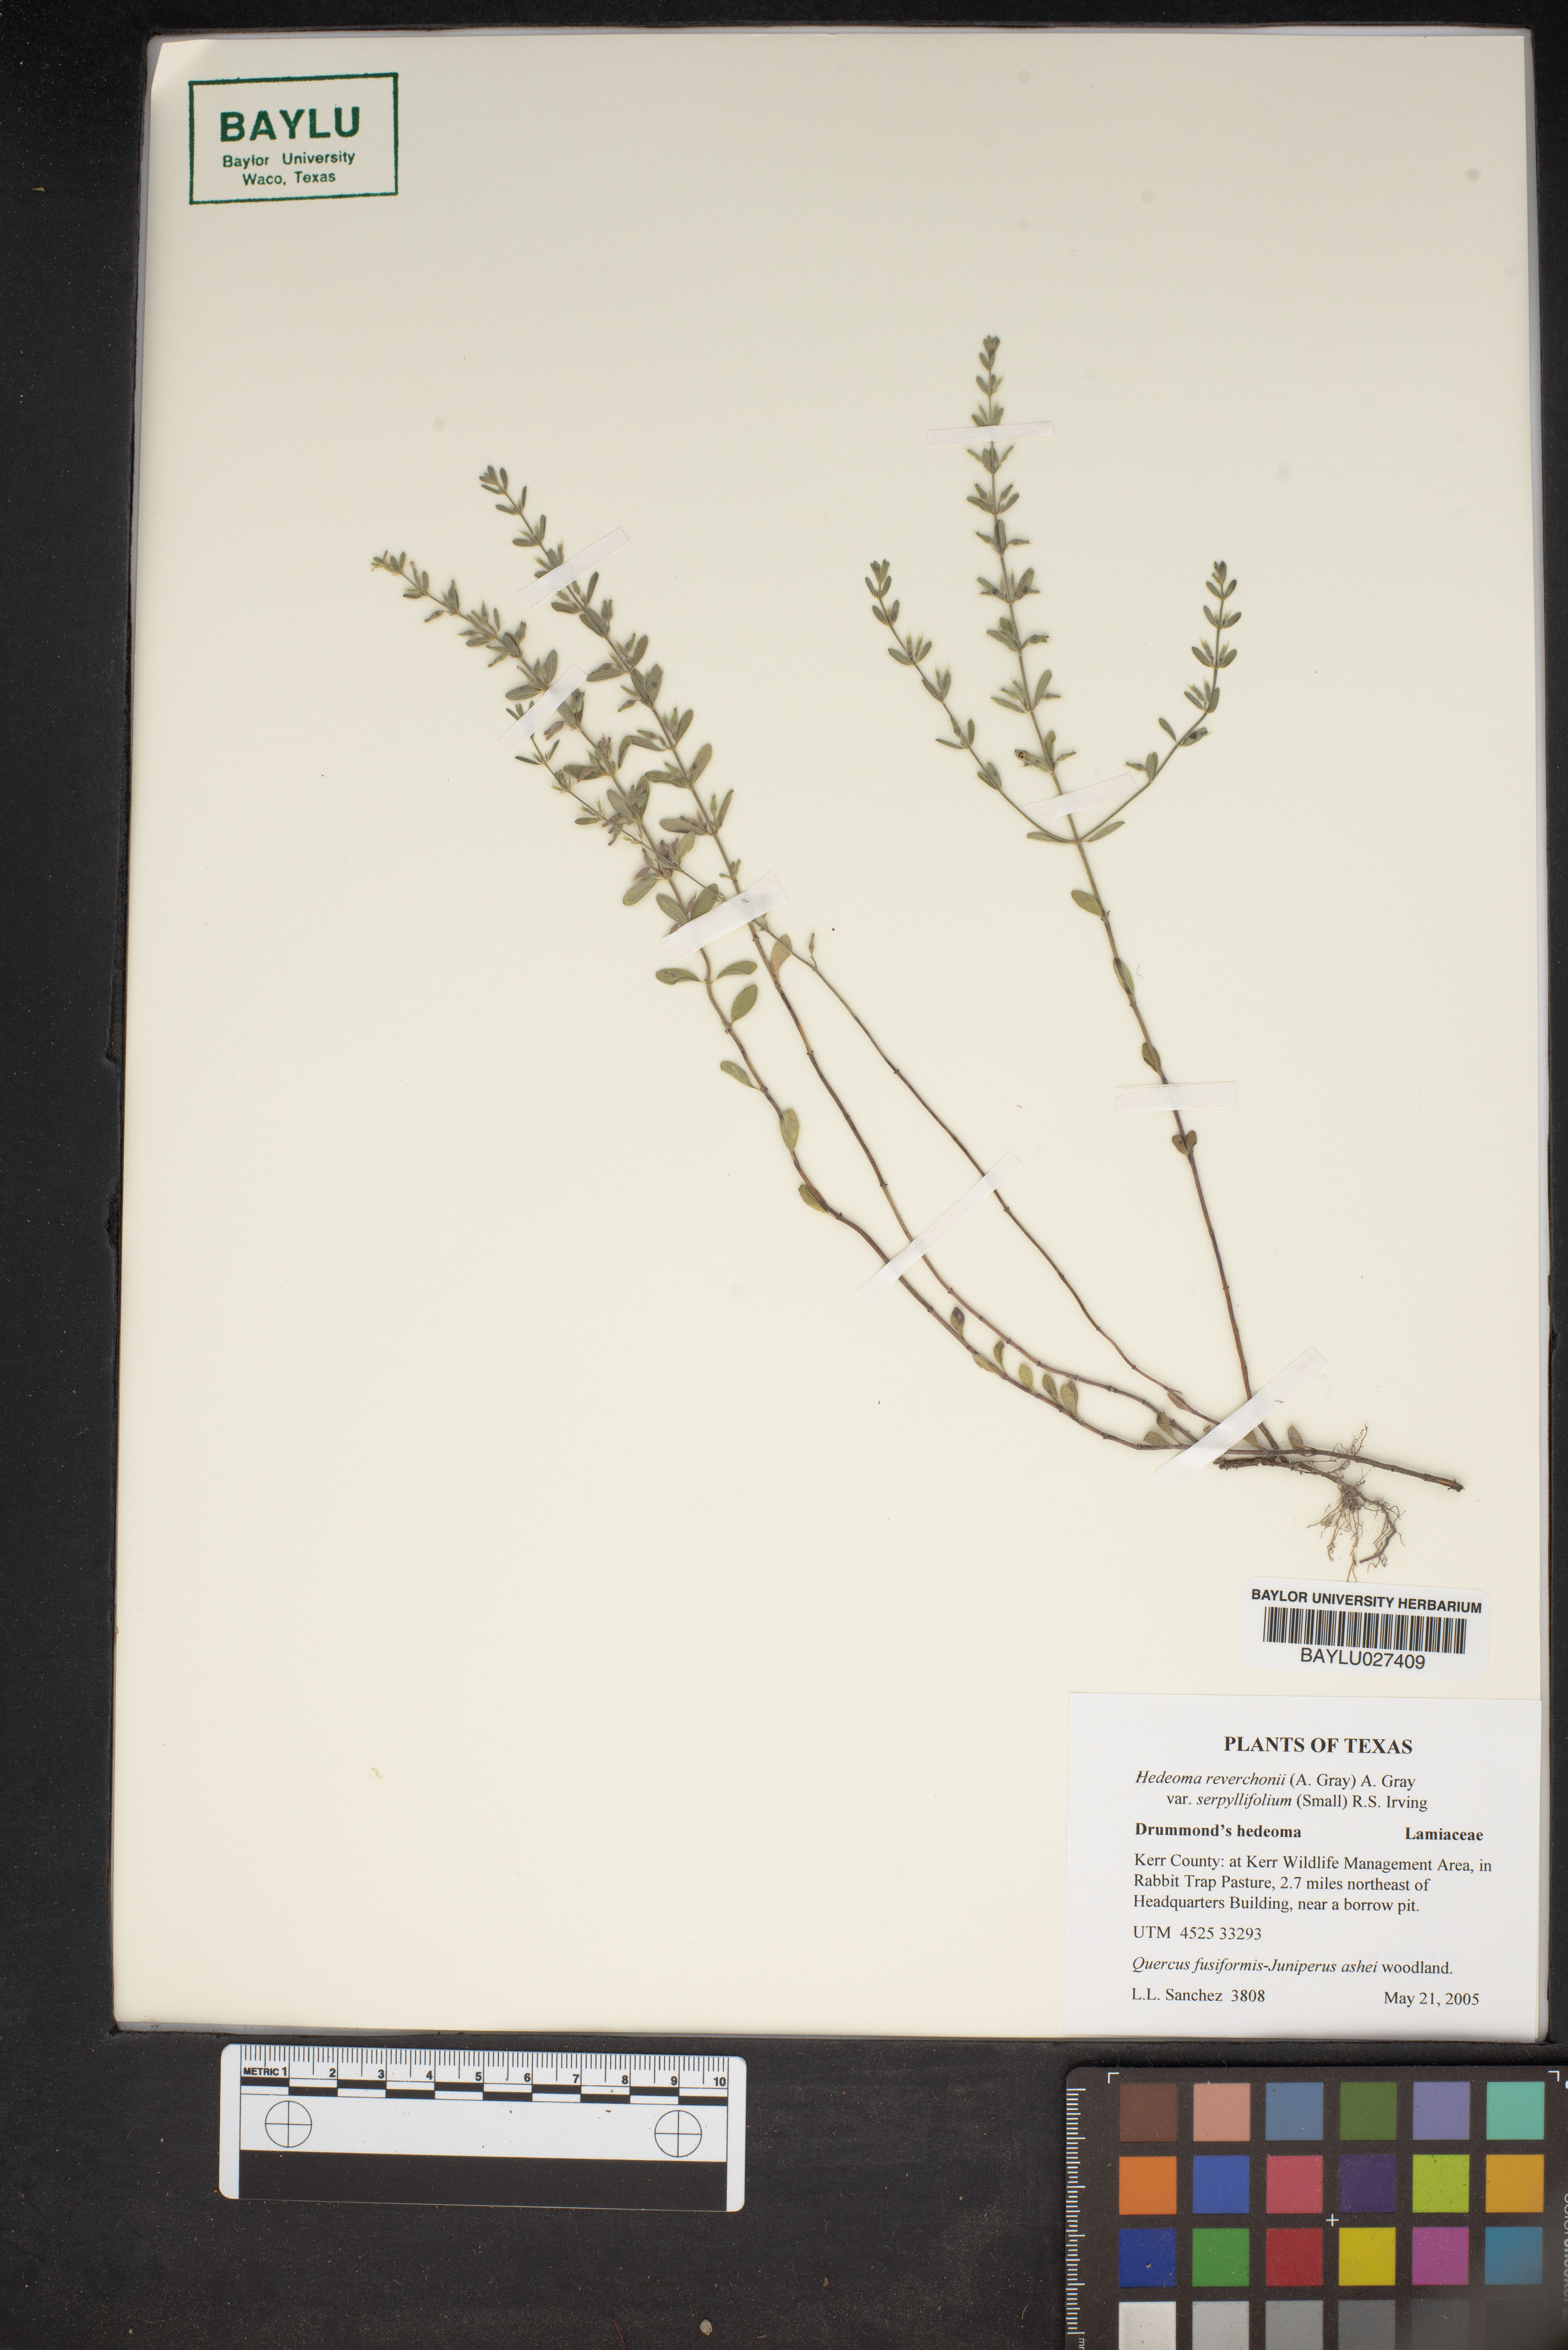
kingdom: Plantae
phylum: Tracheophyta
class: Magnoliopsida
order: Lamiales
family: Lamiaceae
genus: Hedeoma
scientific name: Hedeoma serpyllifolia
